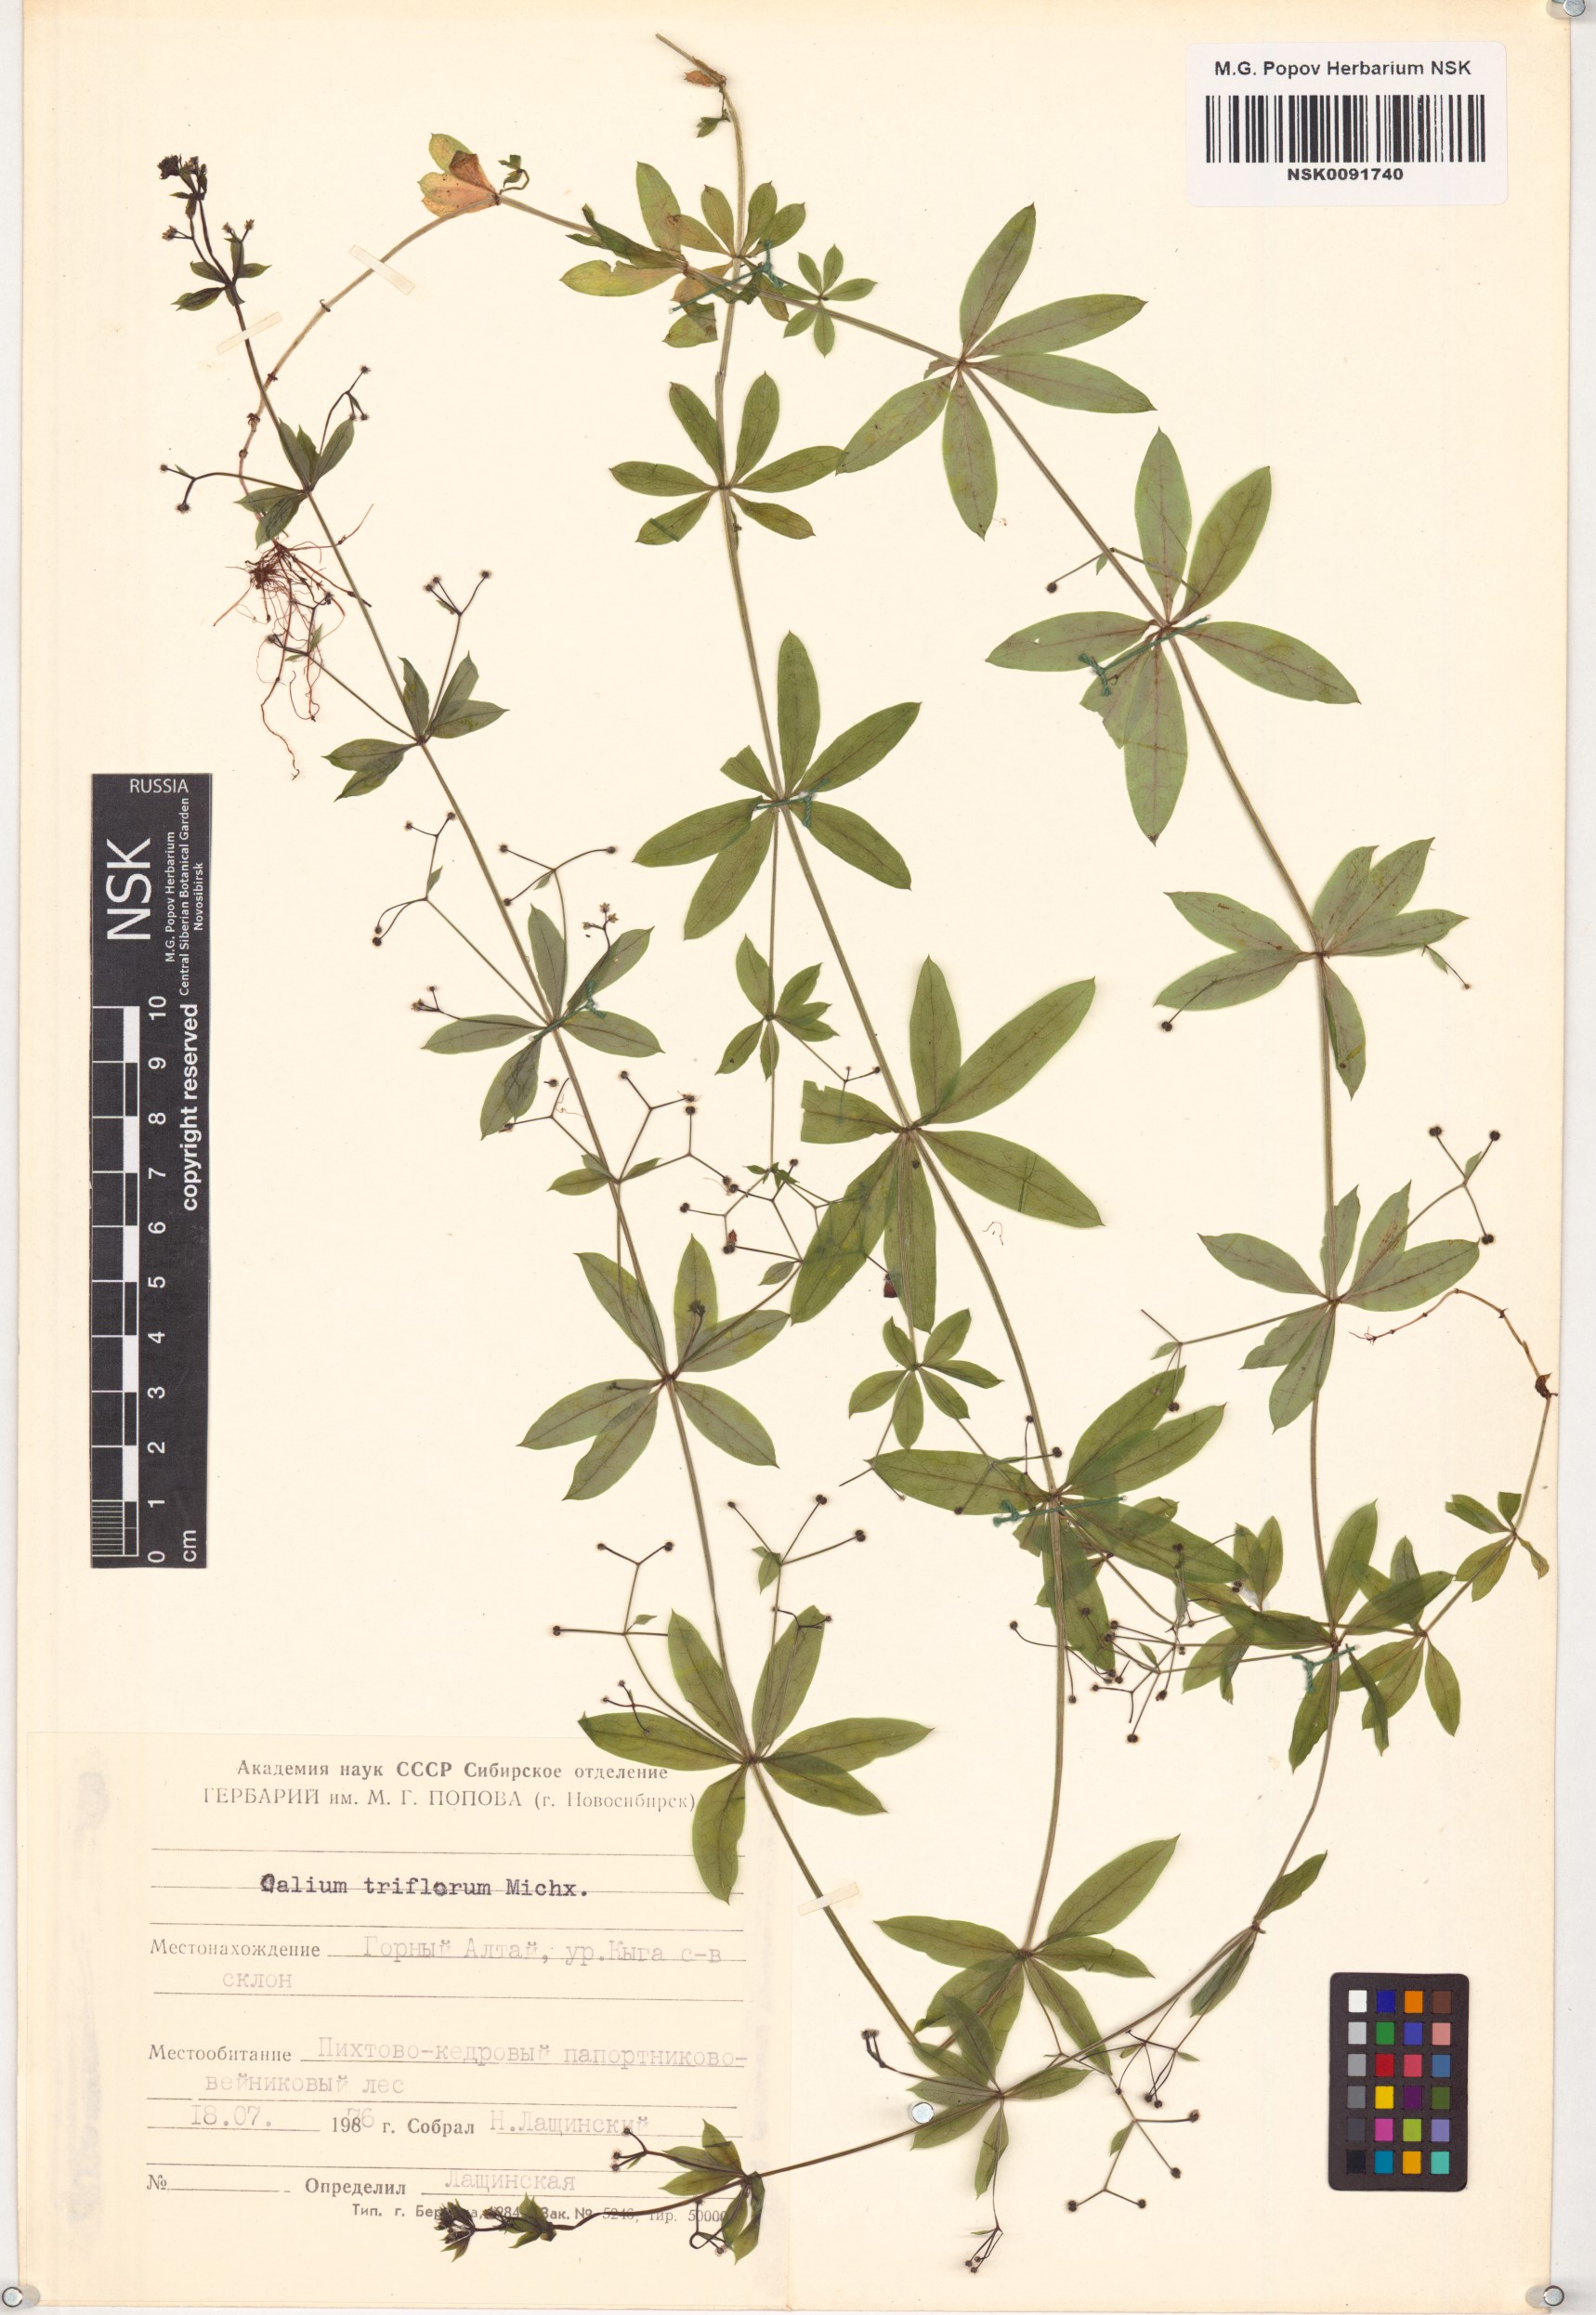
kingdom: Plantae
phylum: Tracheophyta
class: Magnoliopsida
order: Gentianales
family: Rubiaceae
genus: Galium
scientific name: Galium triflorum
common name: Fragrant bedstraw
